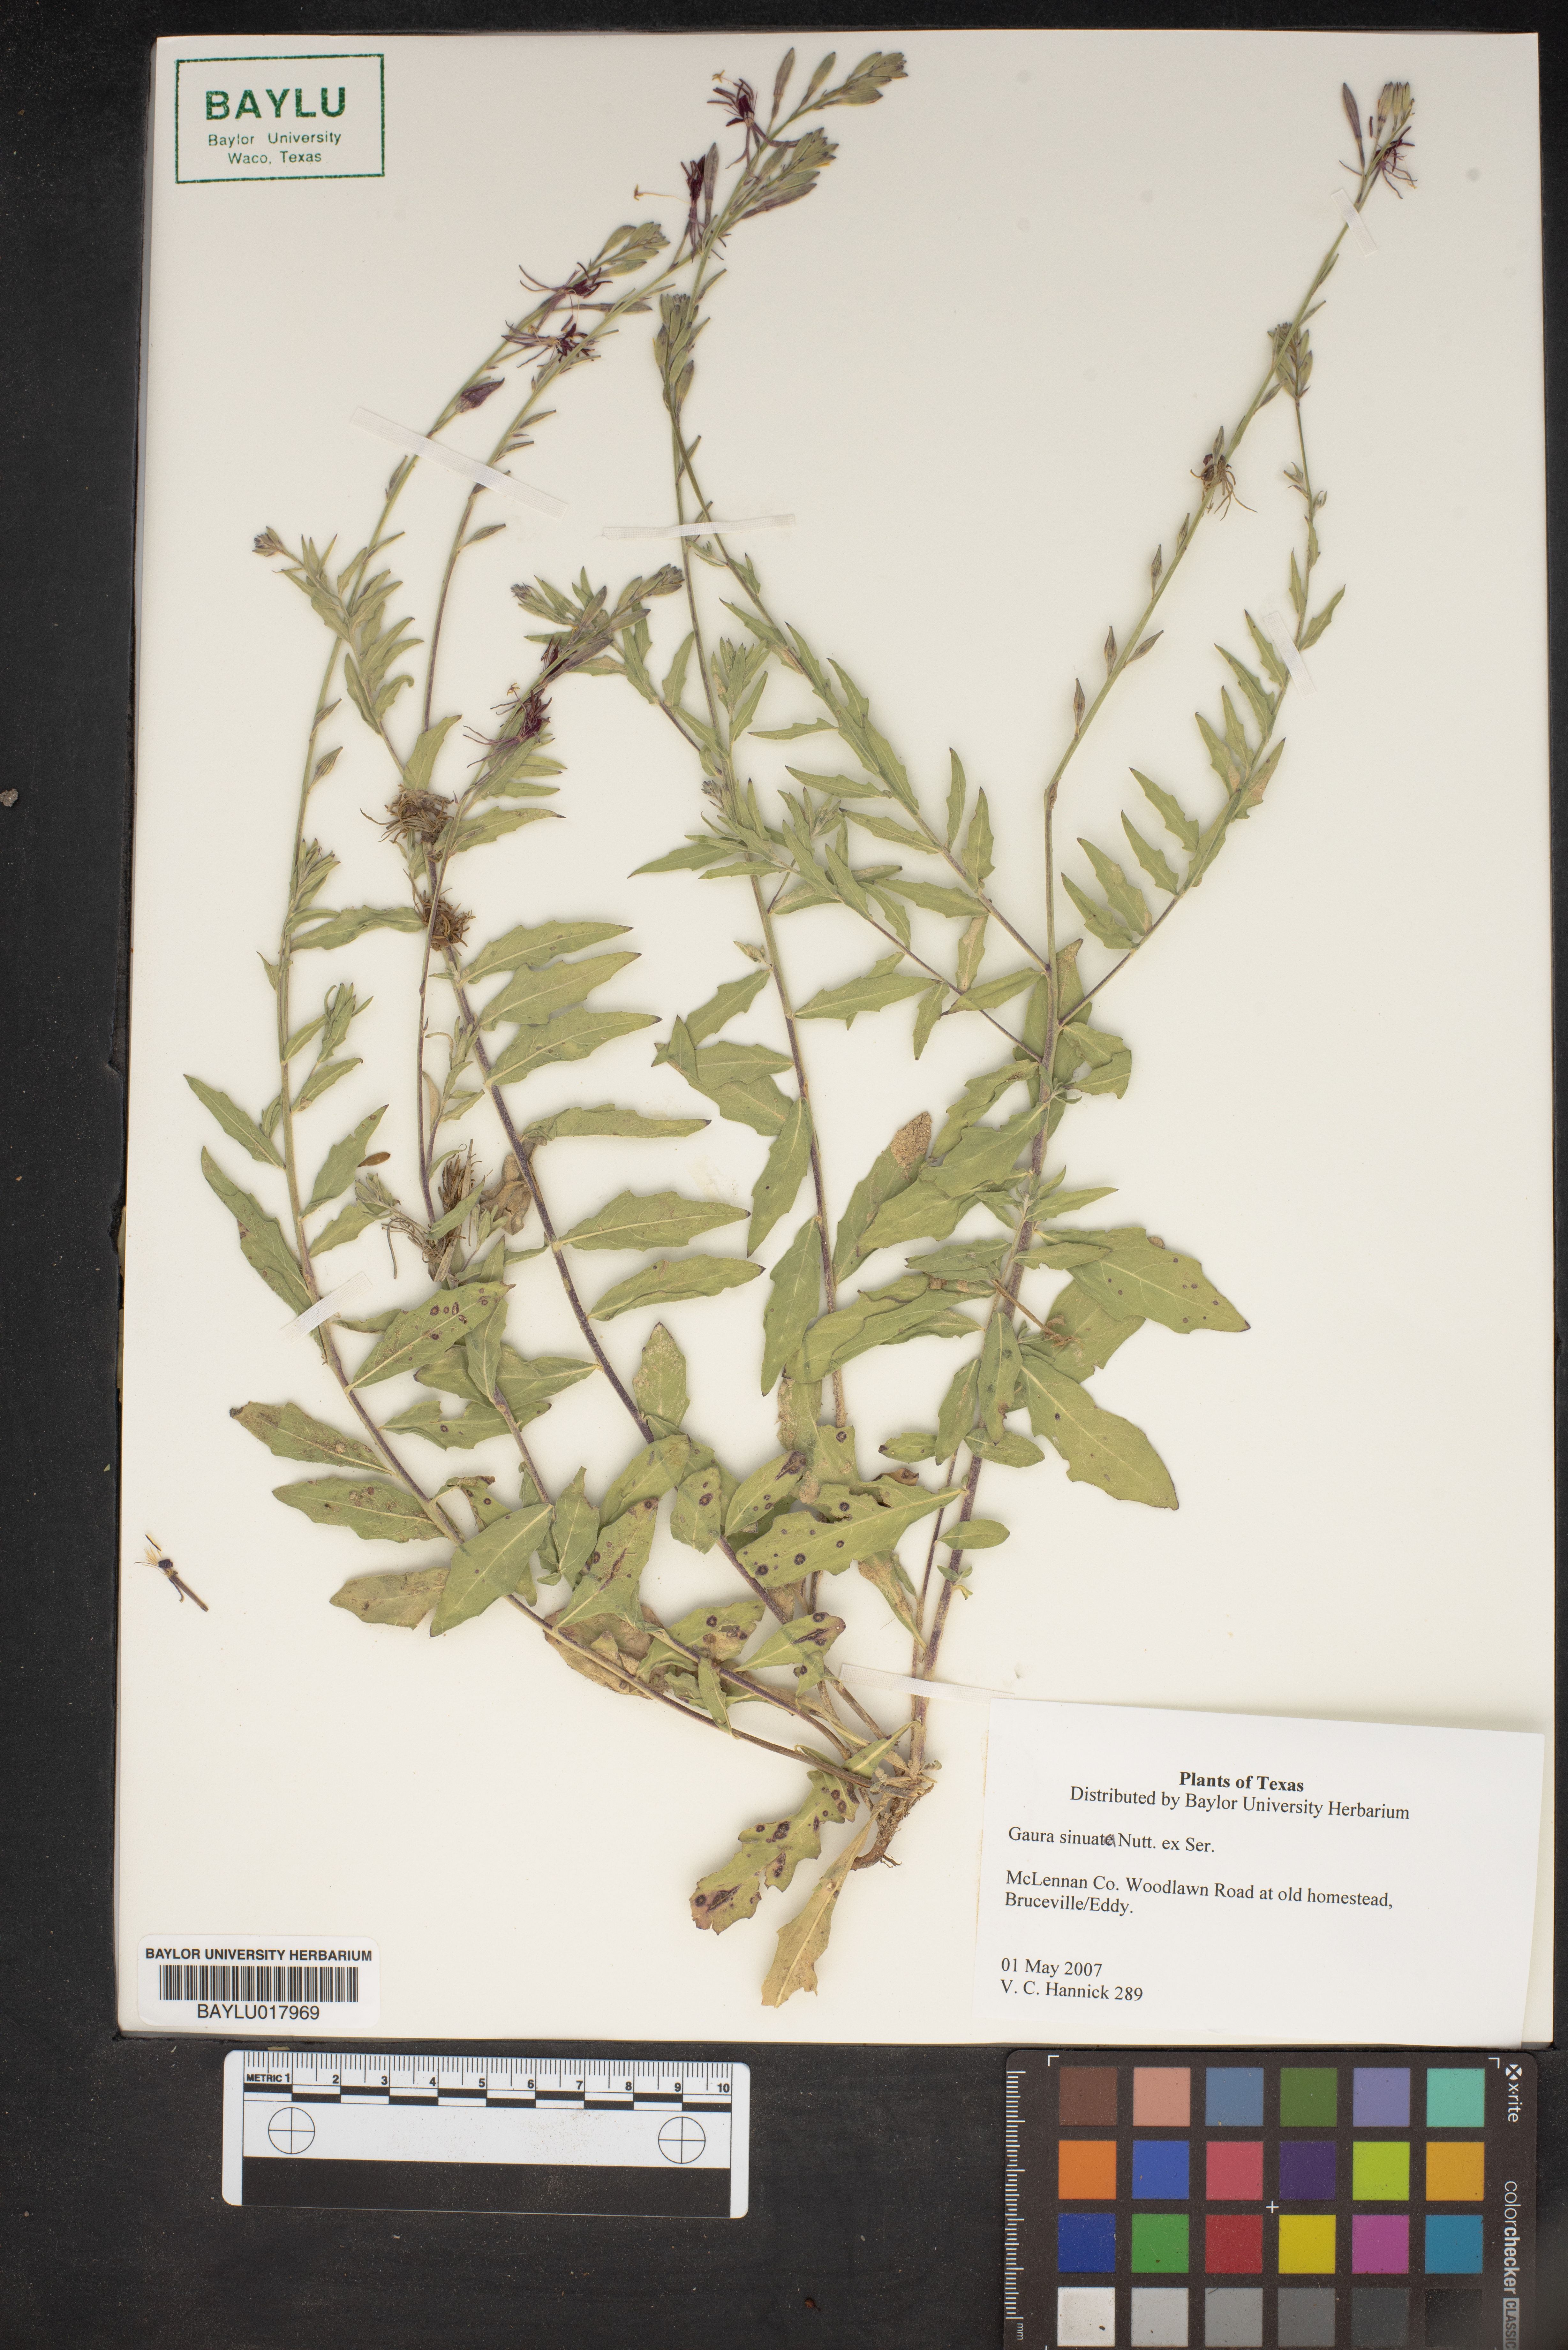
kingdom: Plantae
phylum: Tracheophyta
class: Magnoliopsida
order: Myrtales
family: Onagraceae
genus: Oenothera
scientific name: Oenothera sinuosa
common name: Wavyleaf beeblossom
